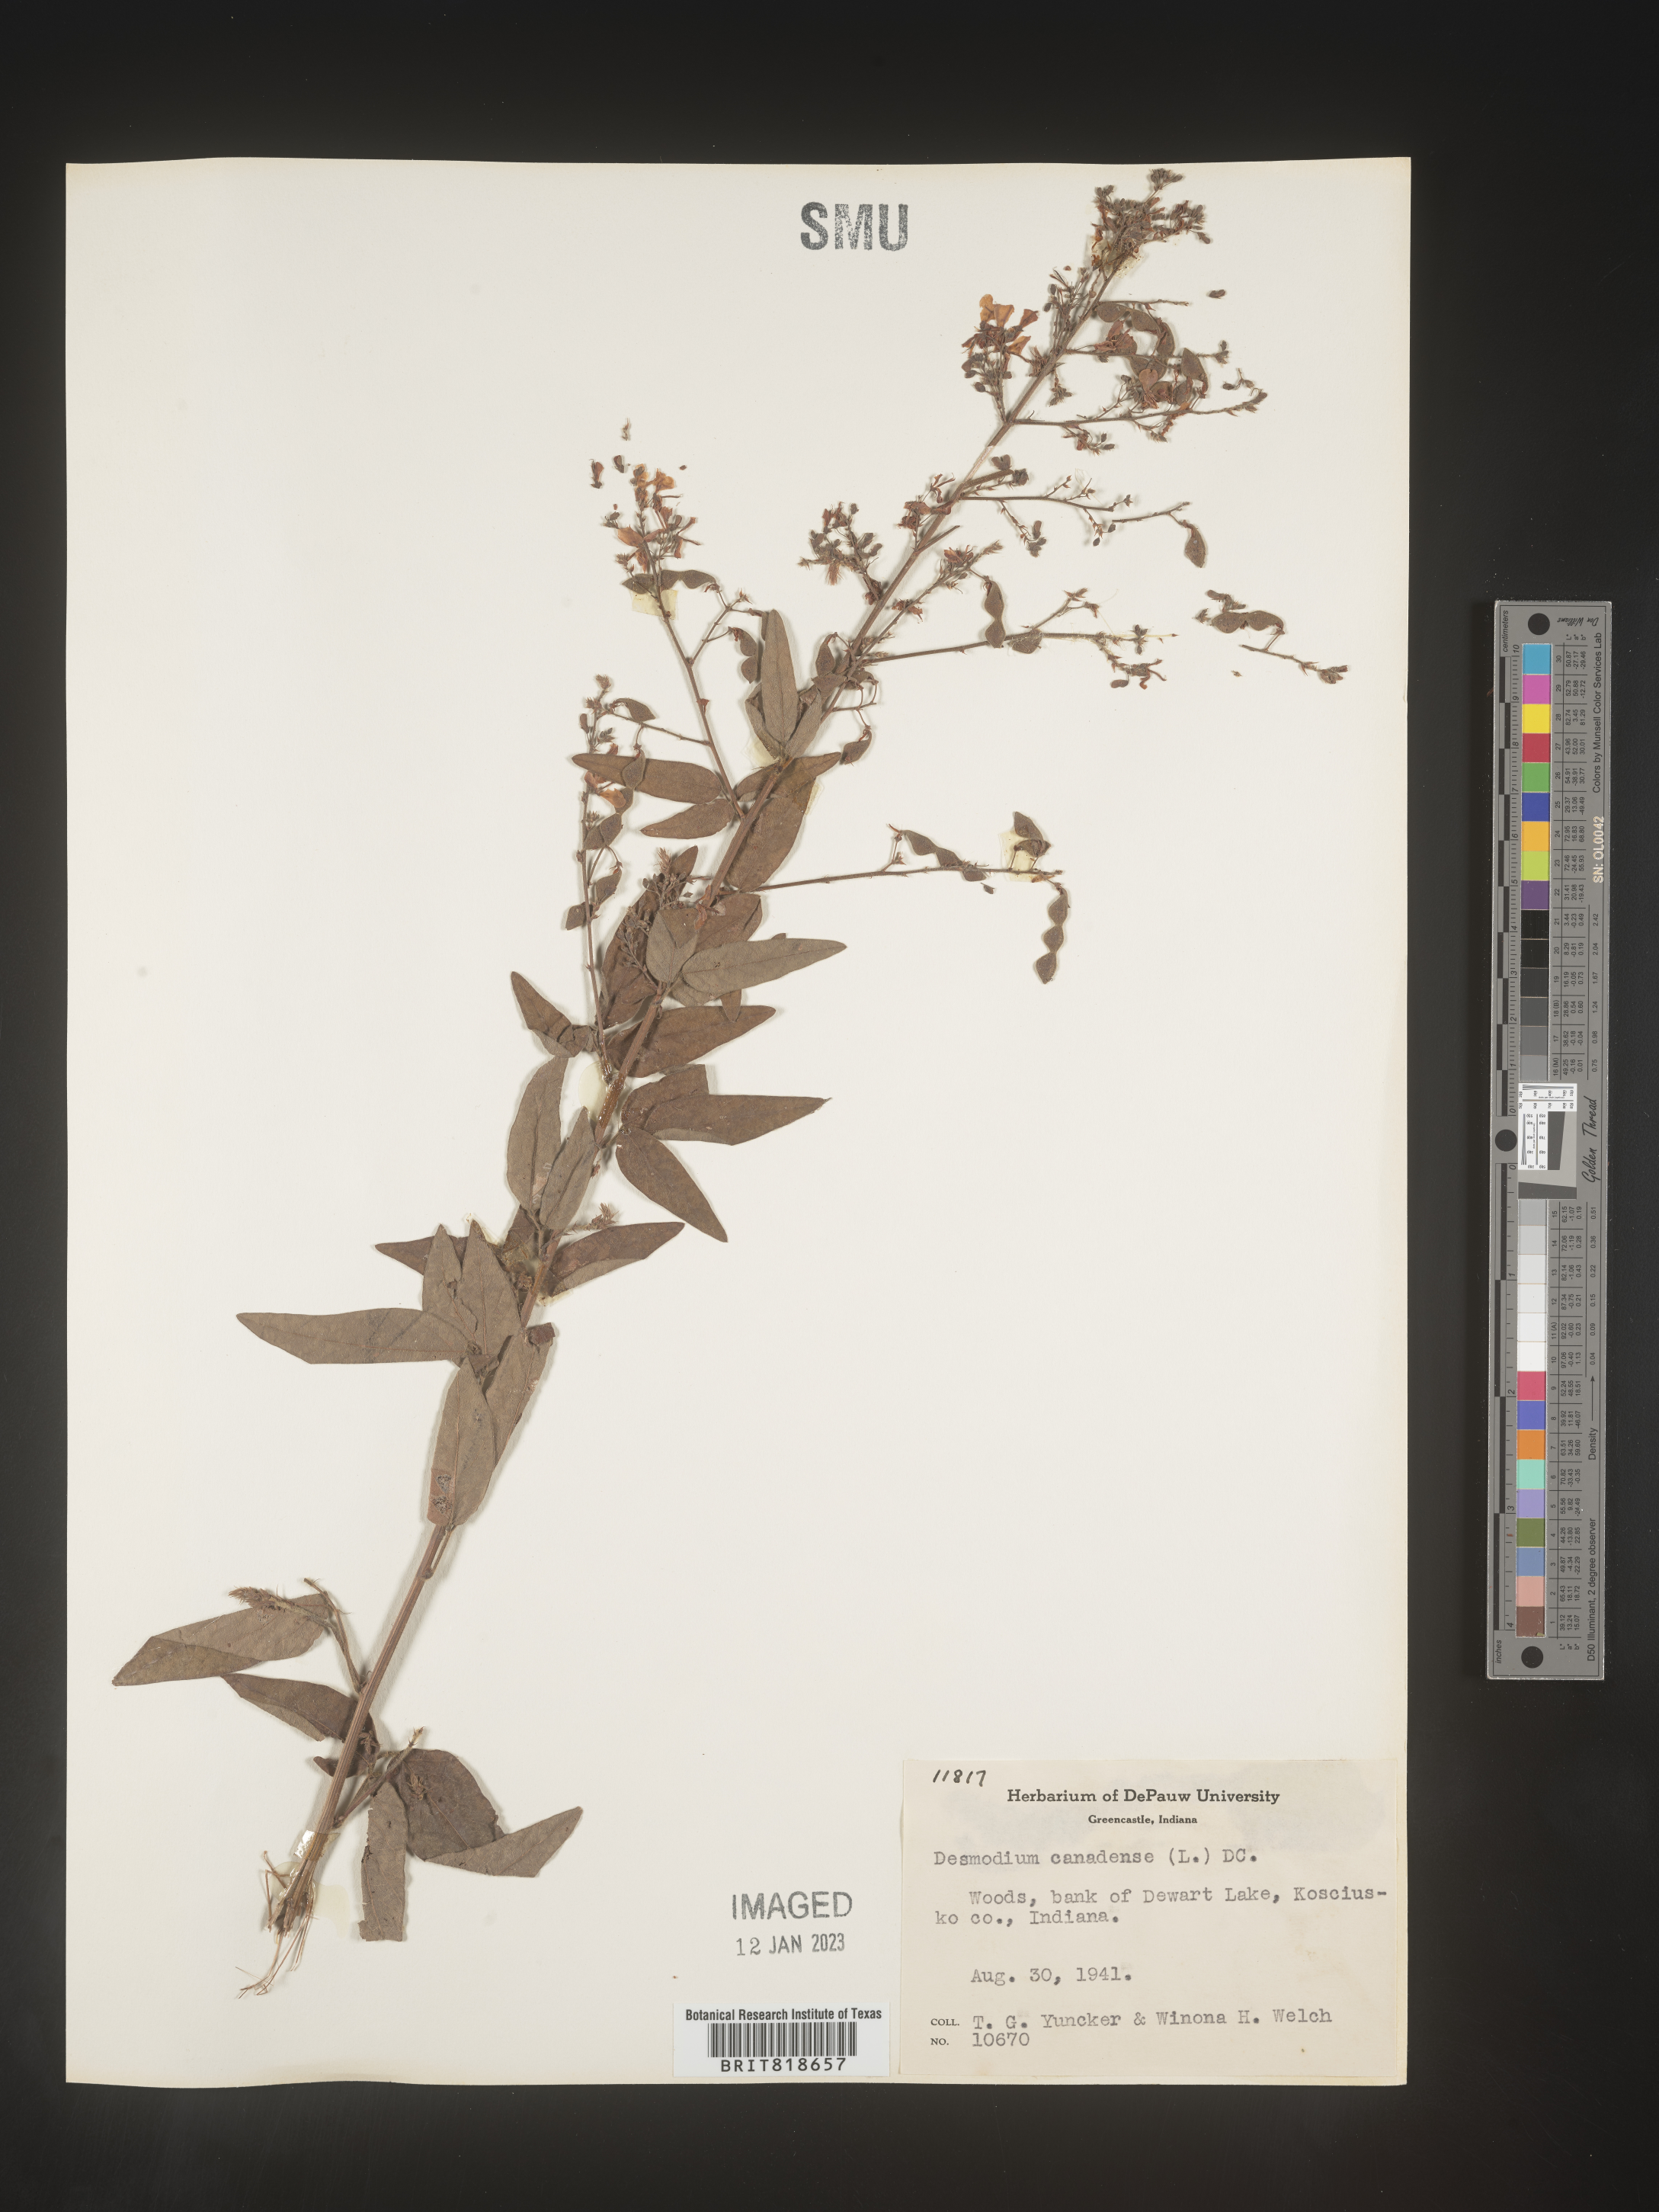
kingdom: Plantae
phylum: Tracheophyta
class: Magnoliopsida
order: Fabales
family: Fabaceae
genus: Desmodium
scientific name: Desmodium canadense
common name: Canada tick-trefoil
